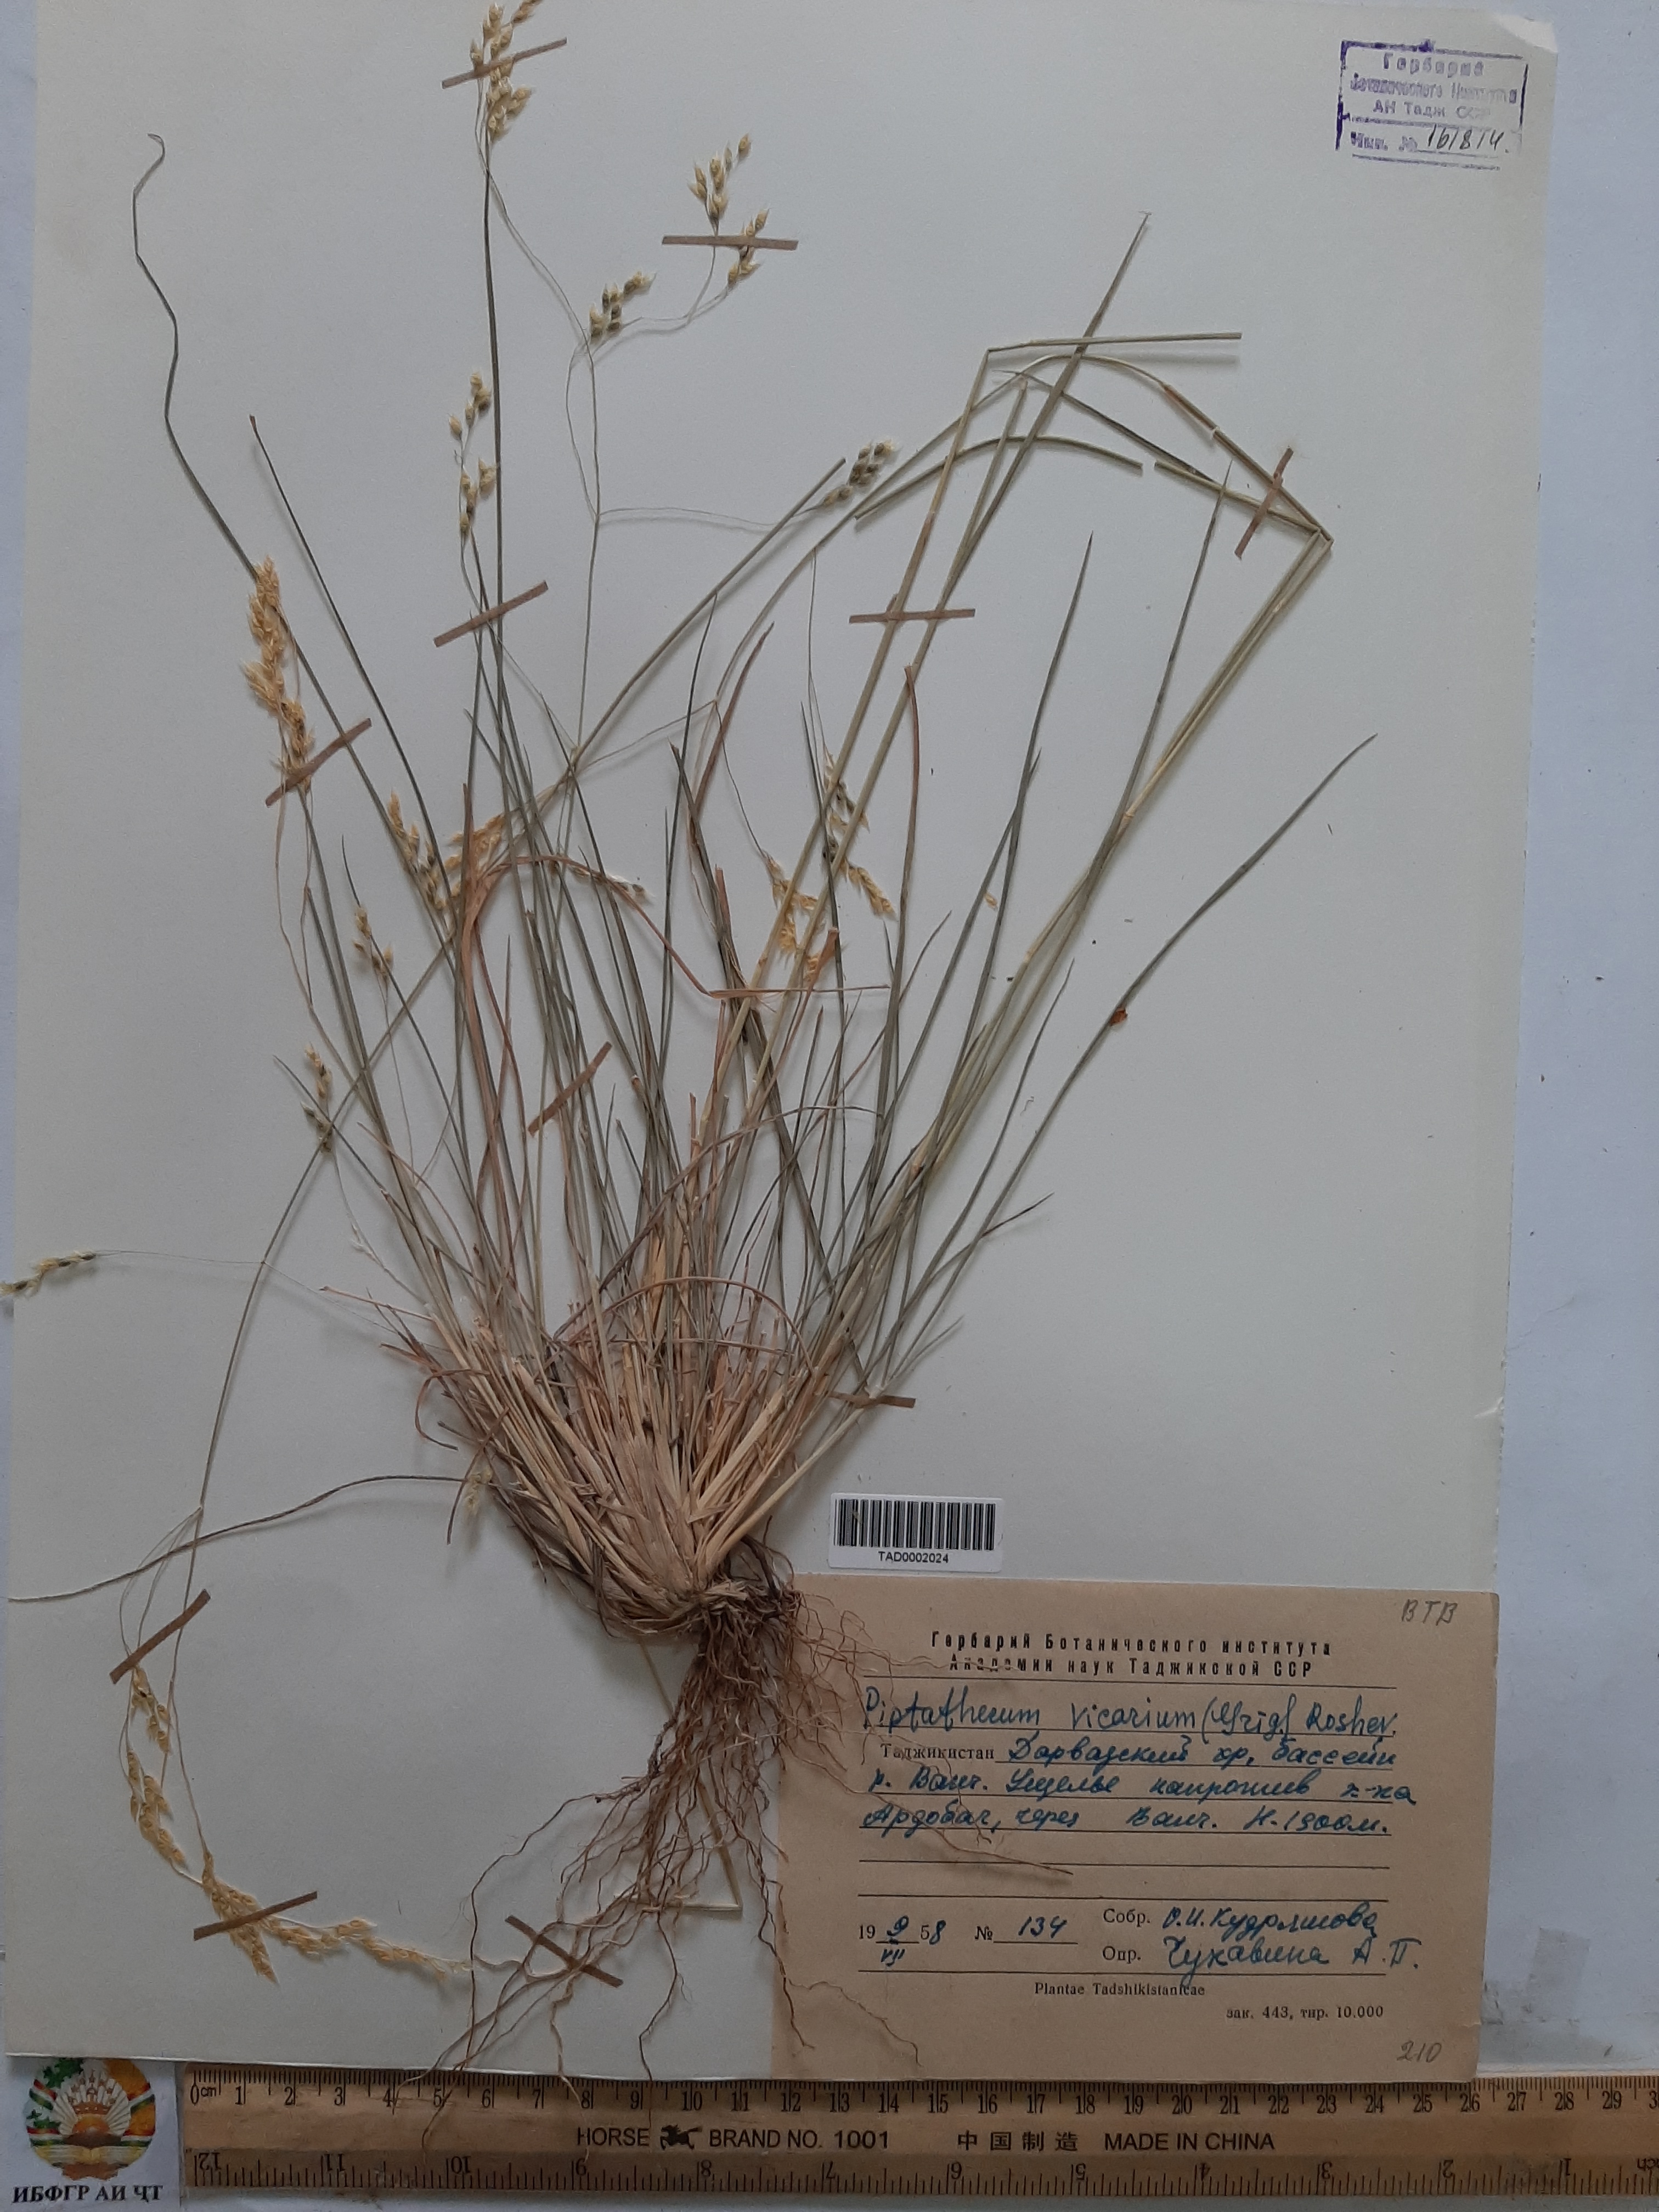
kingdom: Plantae
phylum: Tracheophyta
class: Liliopsida
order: Poales
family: Poaceae
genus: Piptatherum
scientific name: Piptatherum microcarpum
